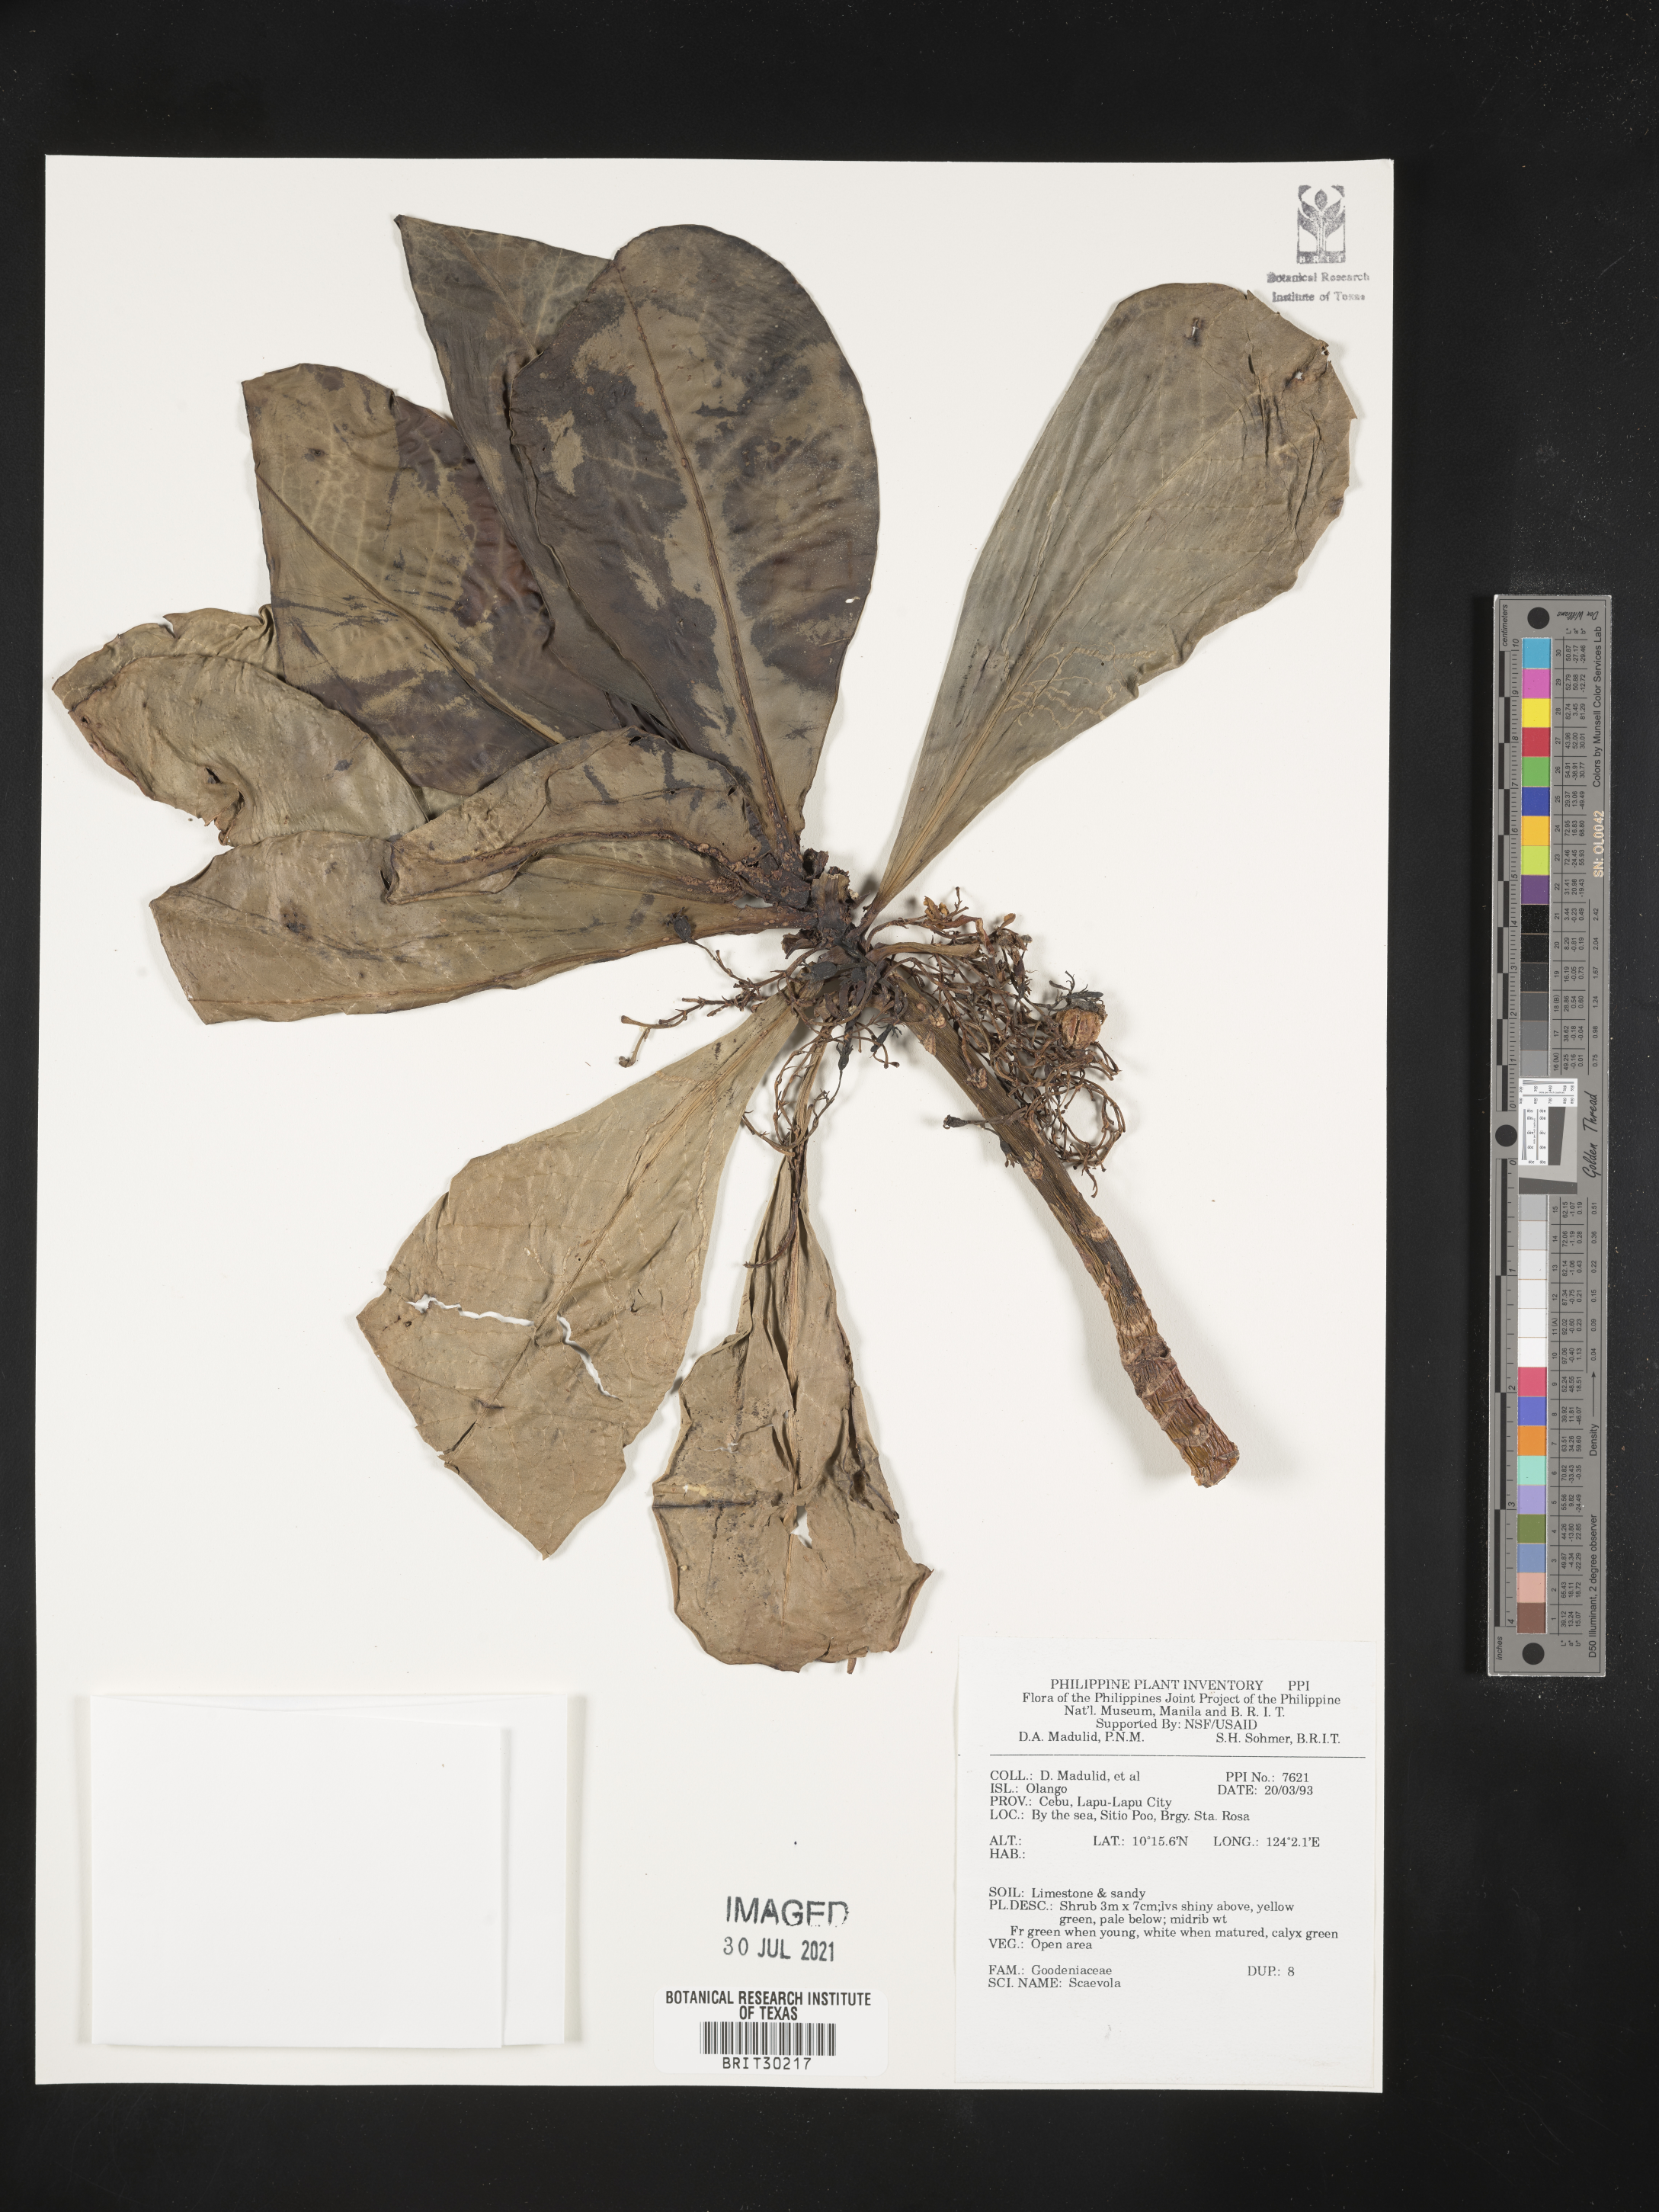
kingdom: Plantae
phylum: Tracheophyta
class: Magnoliopsida
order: Asterales
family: Goodeniaceae
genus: Scaevola
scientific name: Scaevola
